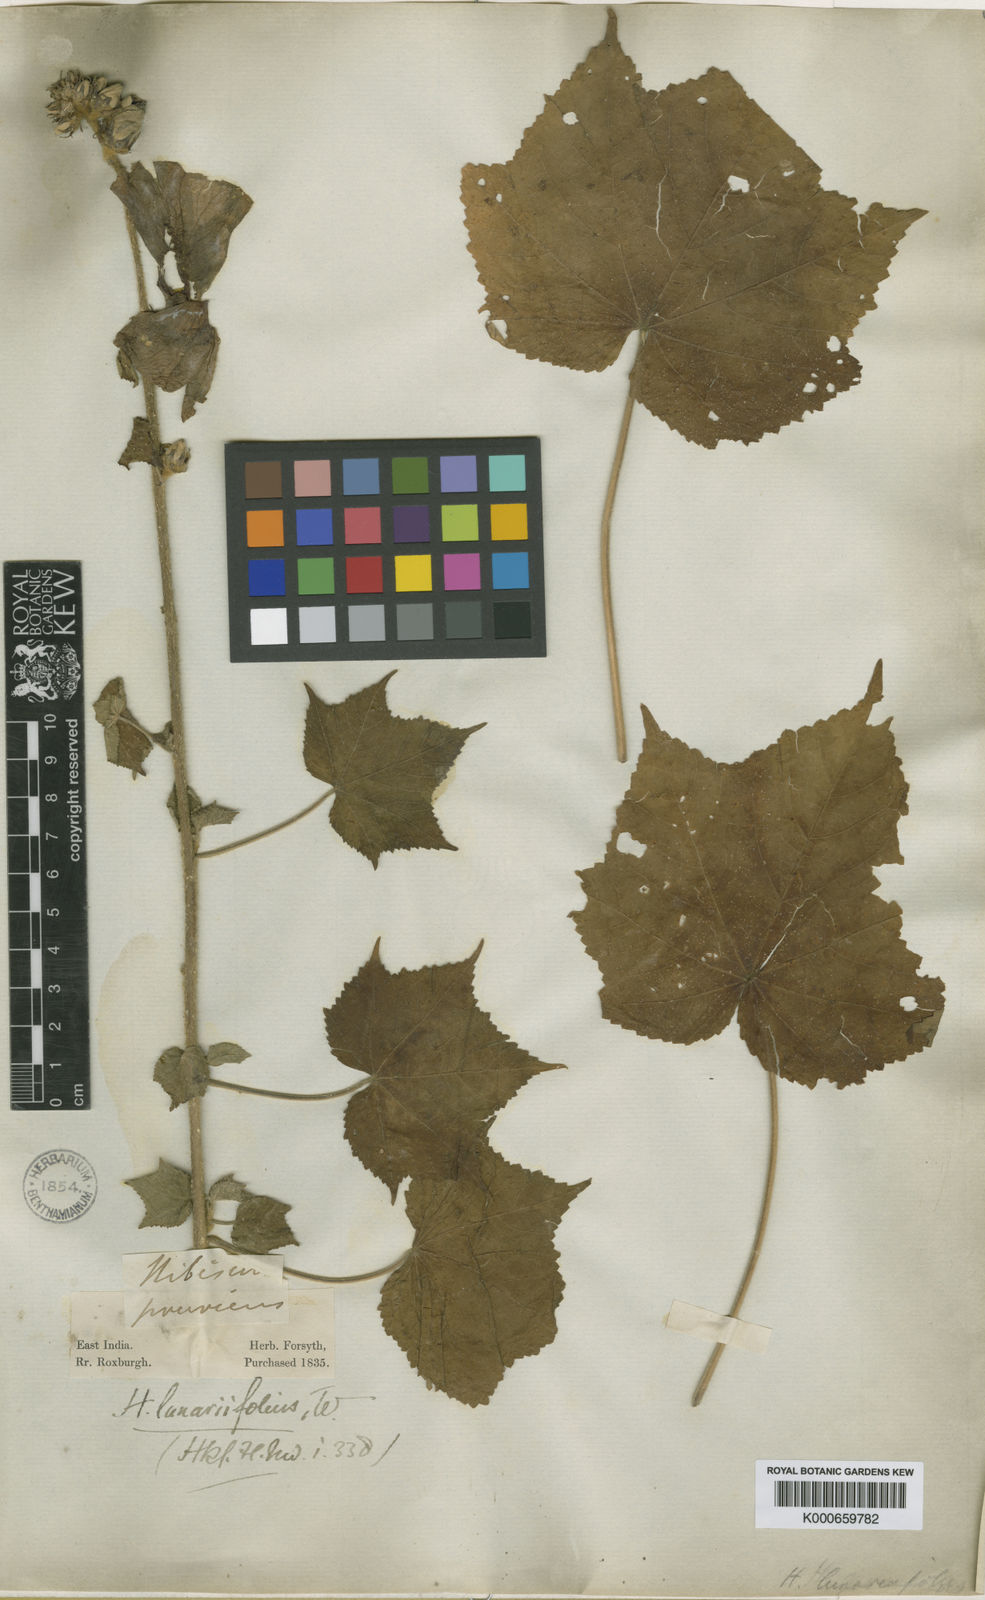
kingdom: Plantae
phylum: Tracheophyta
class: Magnoliopsida
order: Malvales
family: Malvaceae
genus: Hibiscus
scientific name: Hibiscus lunariifolius
